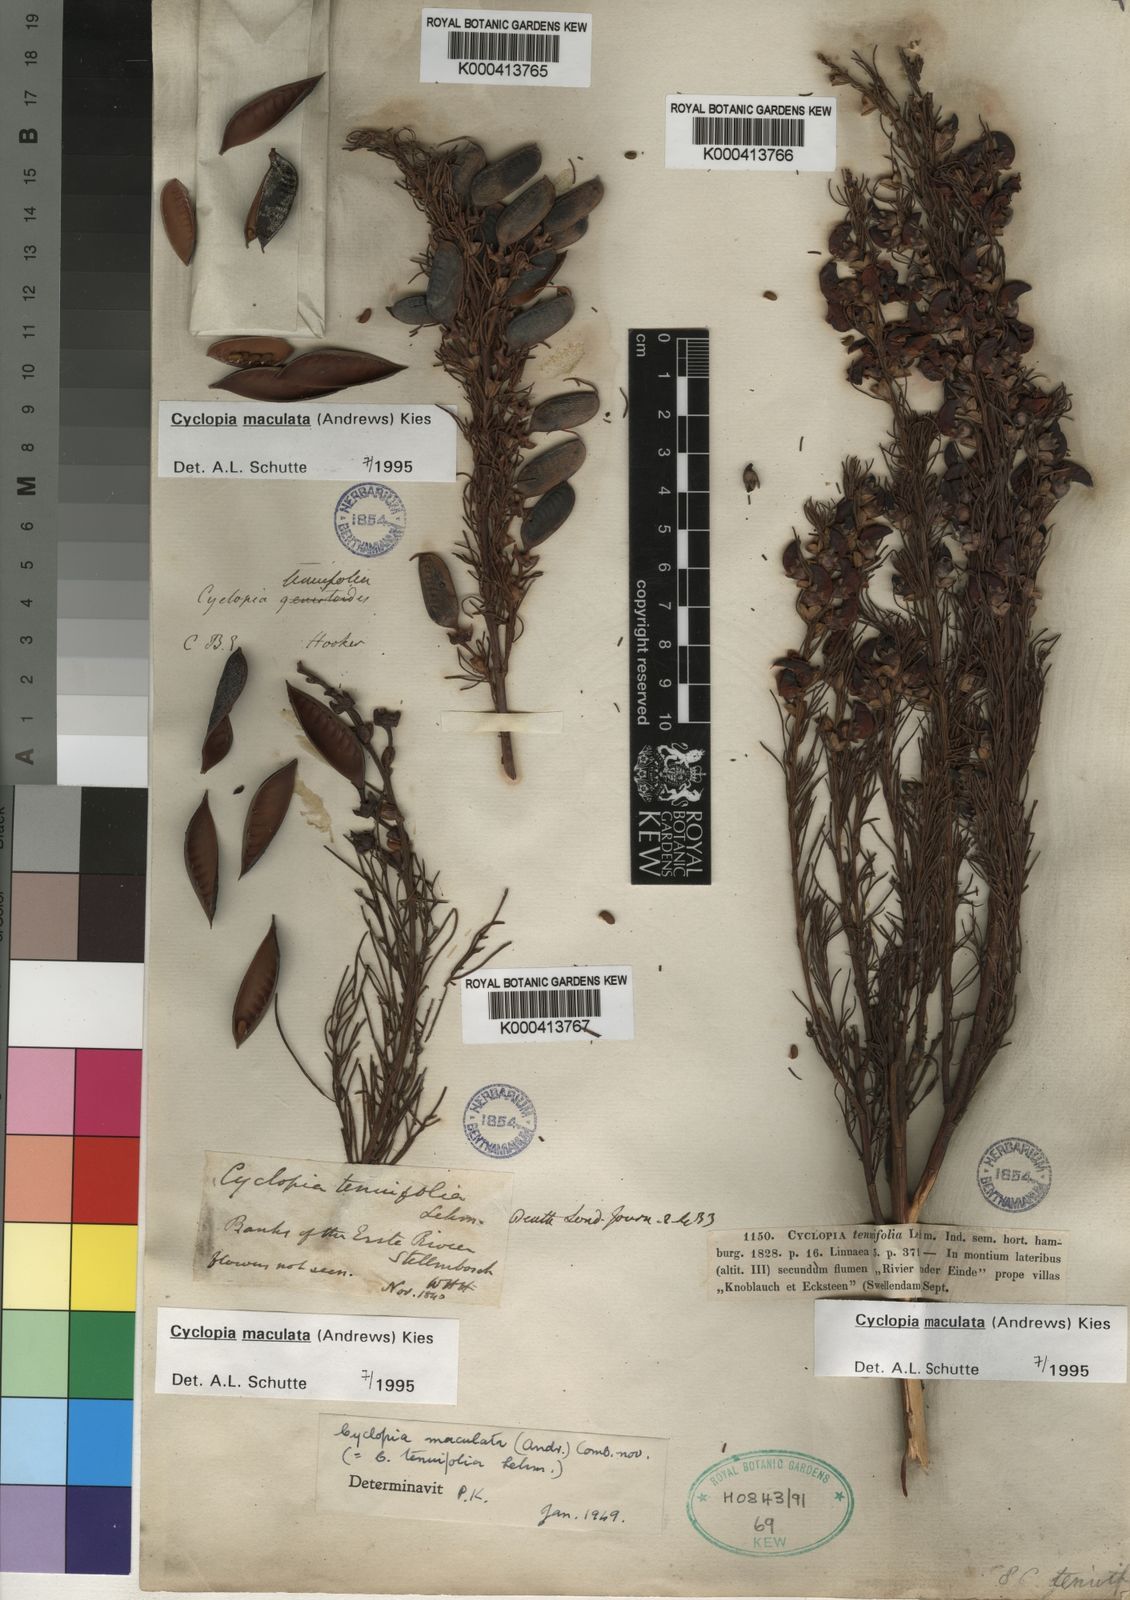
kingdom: Plantae
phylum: Tracheophyta
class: Magnoliopsida
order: Fabales
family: Fabaceae
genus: Cyclopia
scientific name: Cyclopia maculata
